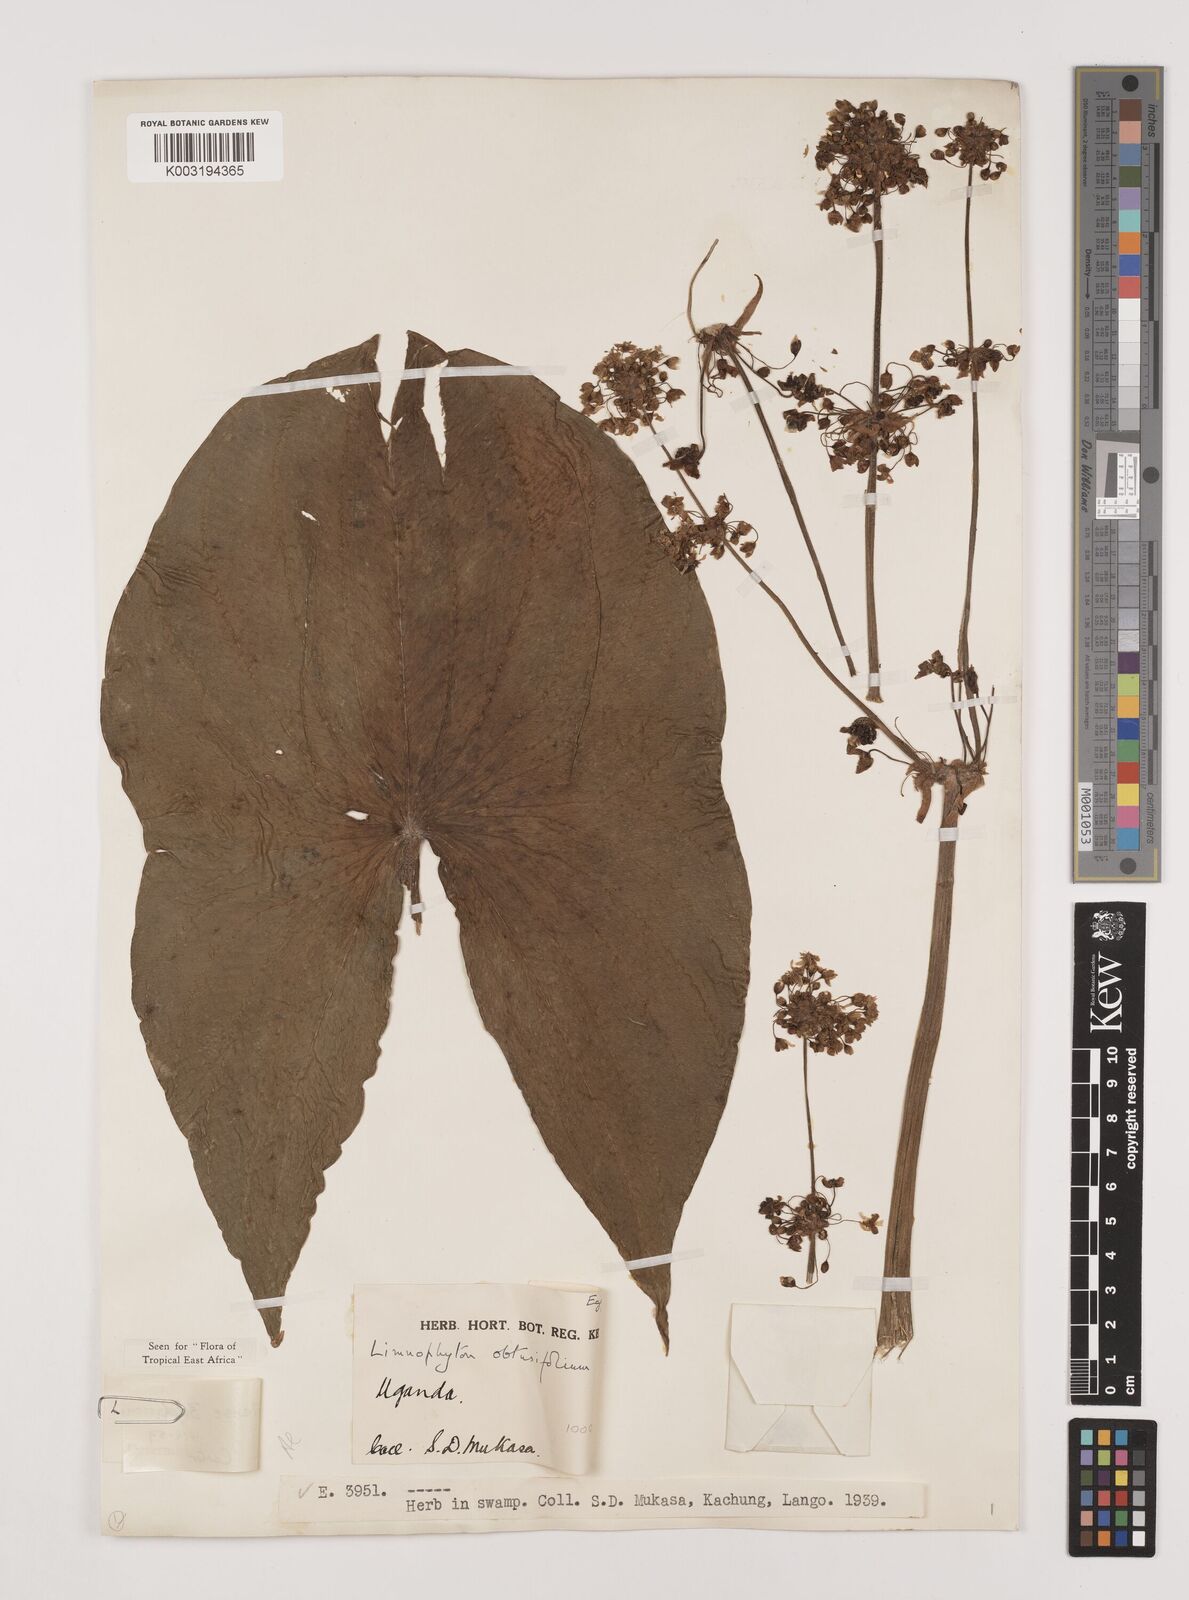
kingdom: Plantae
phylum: Tracheophyta
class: Liliopsida
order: Alismatales
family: Alismataceae
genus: Limnophyton
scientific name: Limnophyton angolense
